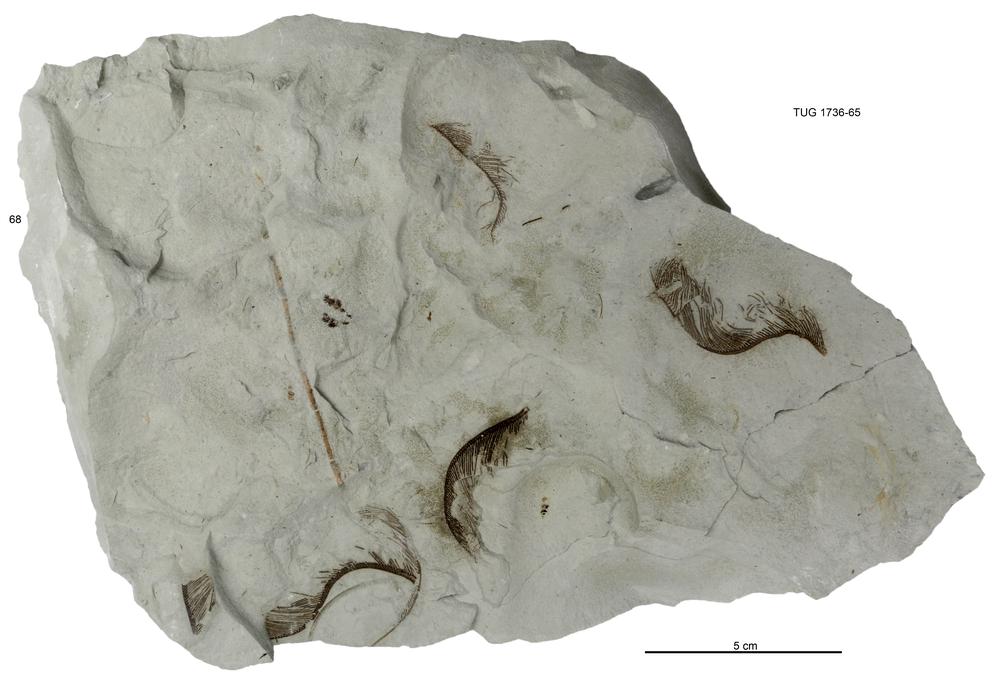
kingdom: Animalia
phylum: Echinodermata
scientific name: Echinodermata
